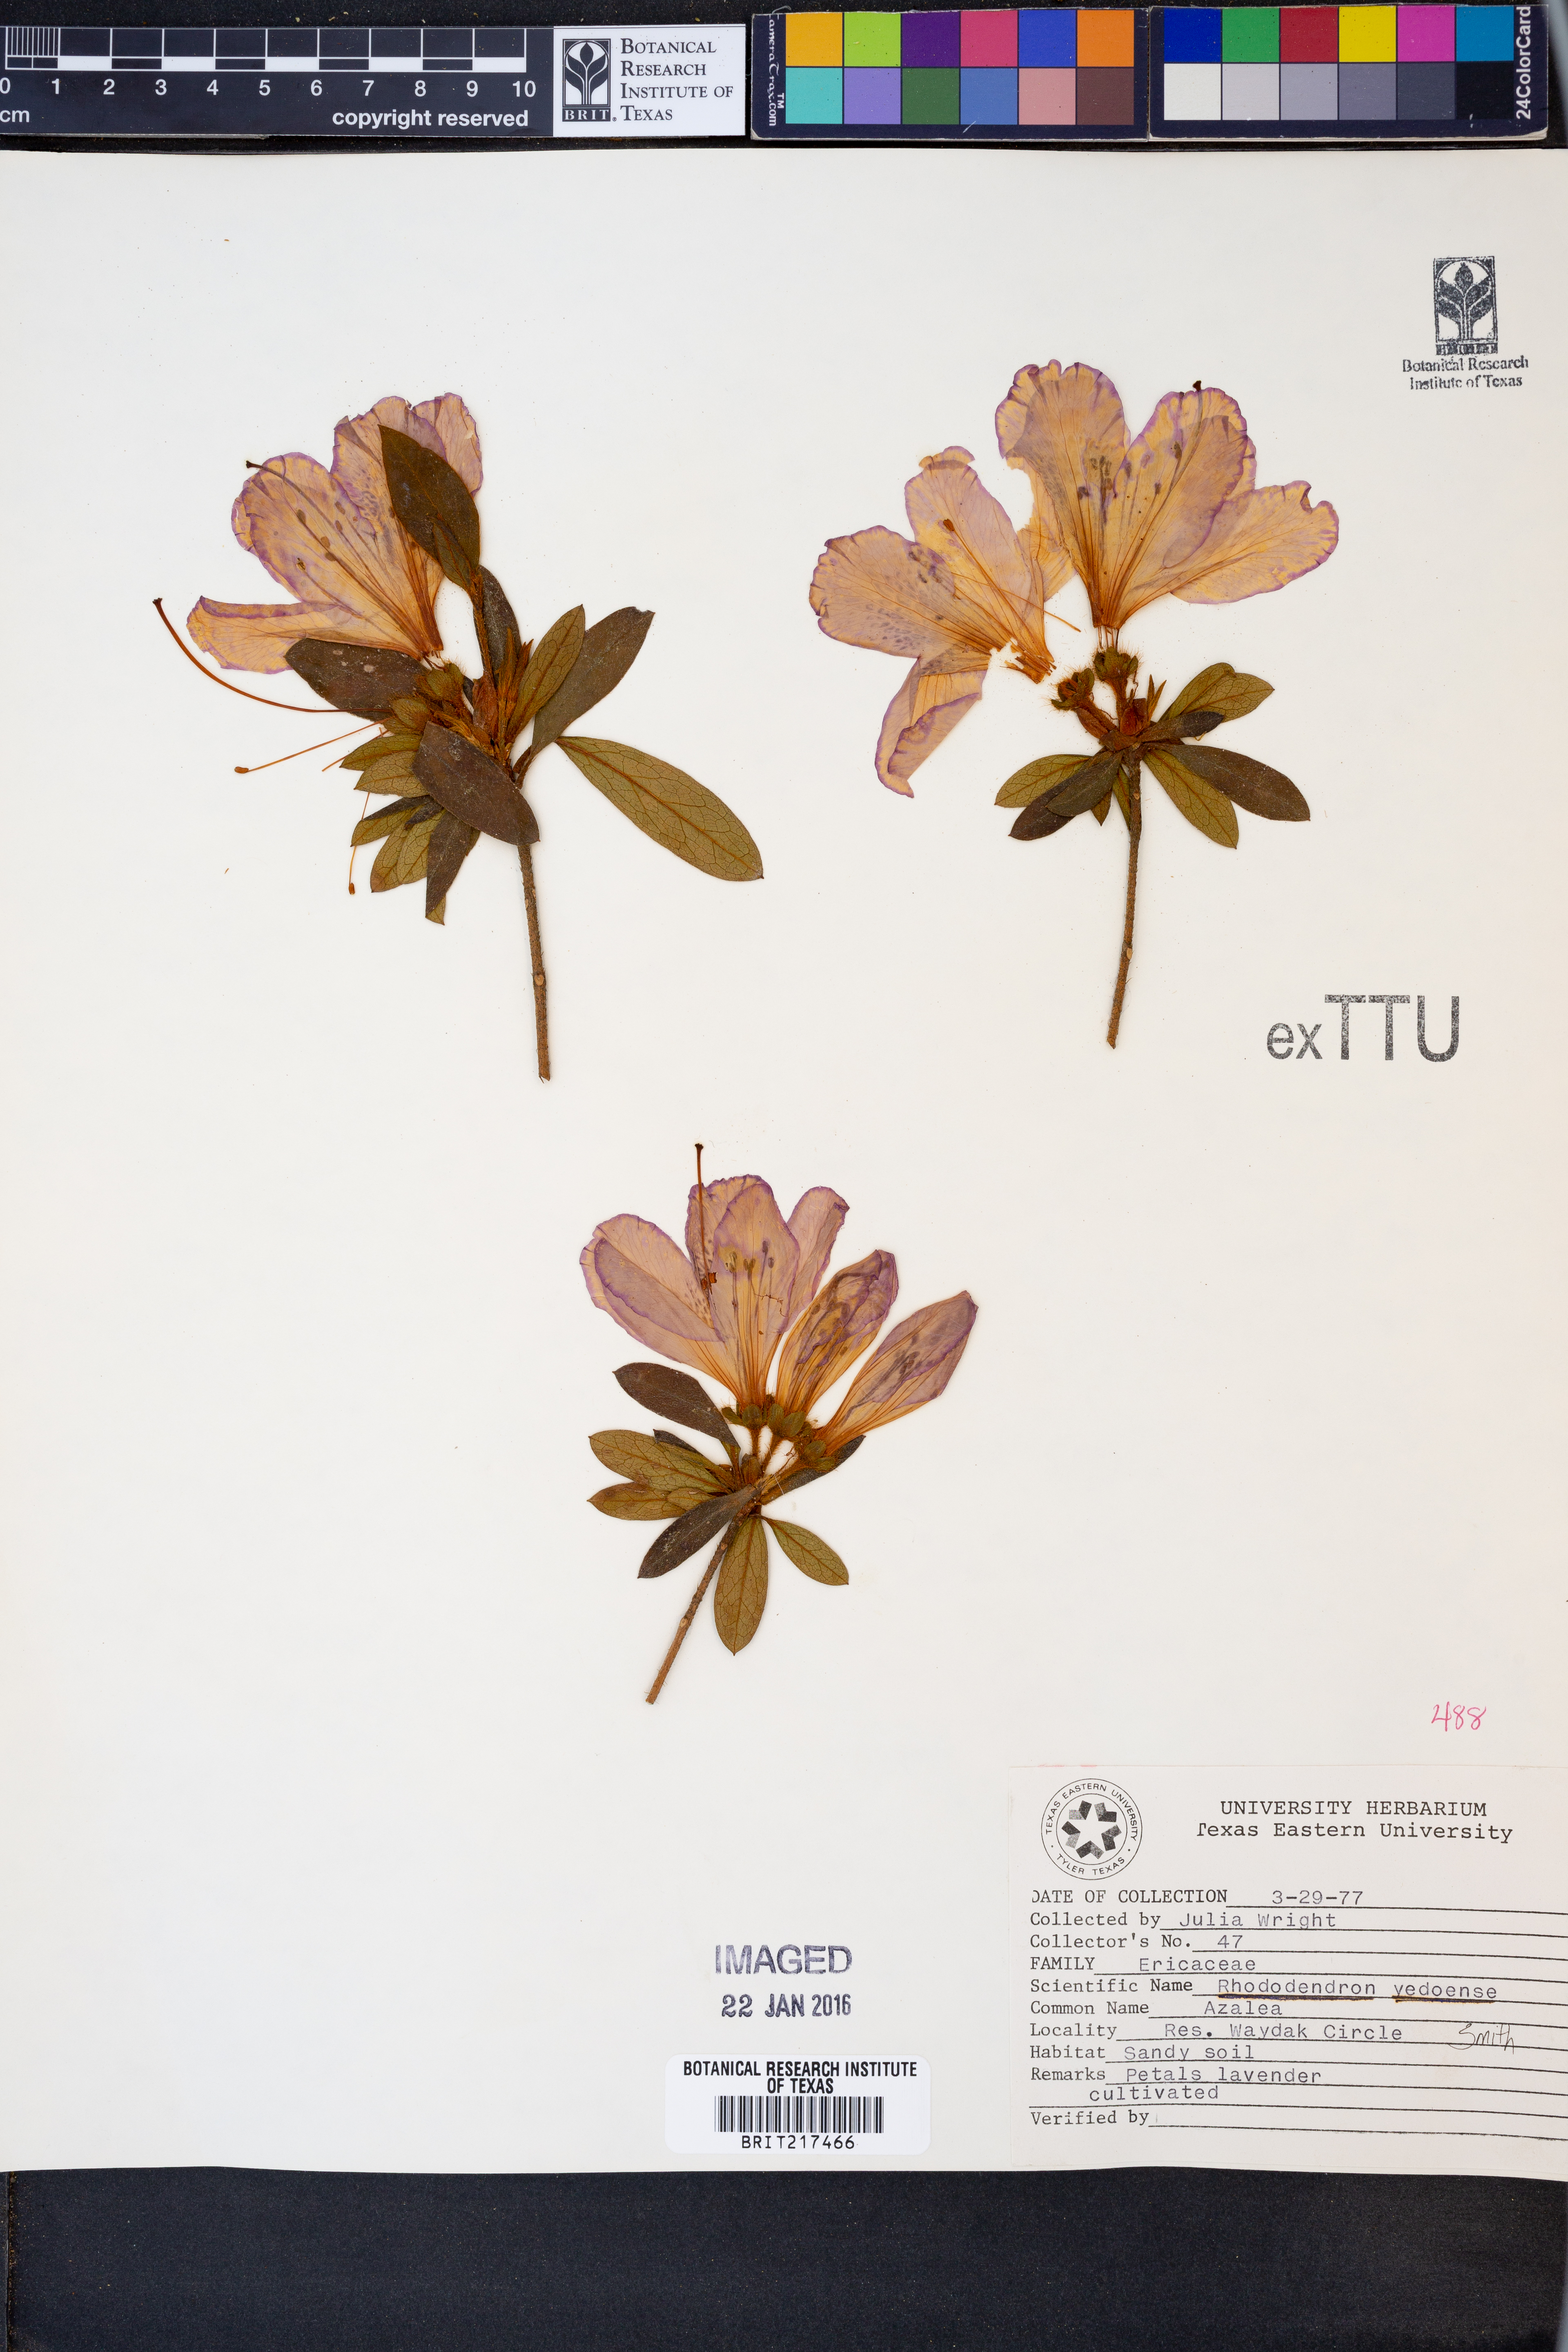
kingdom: Plantae
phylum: Tracheophyta
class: Magnoliopsida
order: Ericales
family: Ericaceae
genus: Rhododendron
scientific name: Rhododendron yedoense
